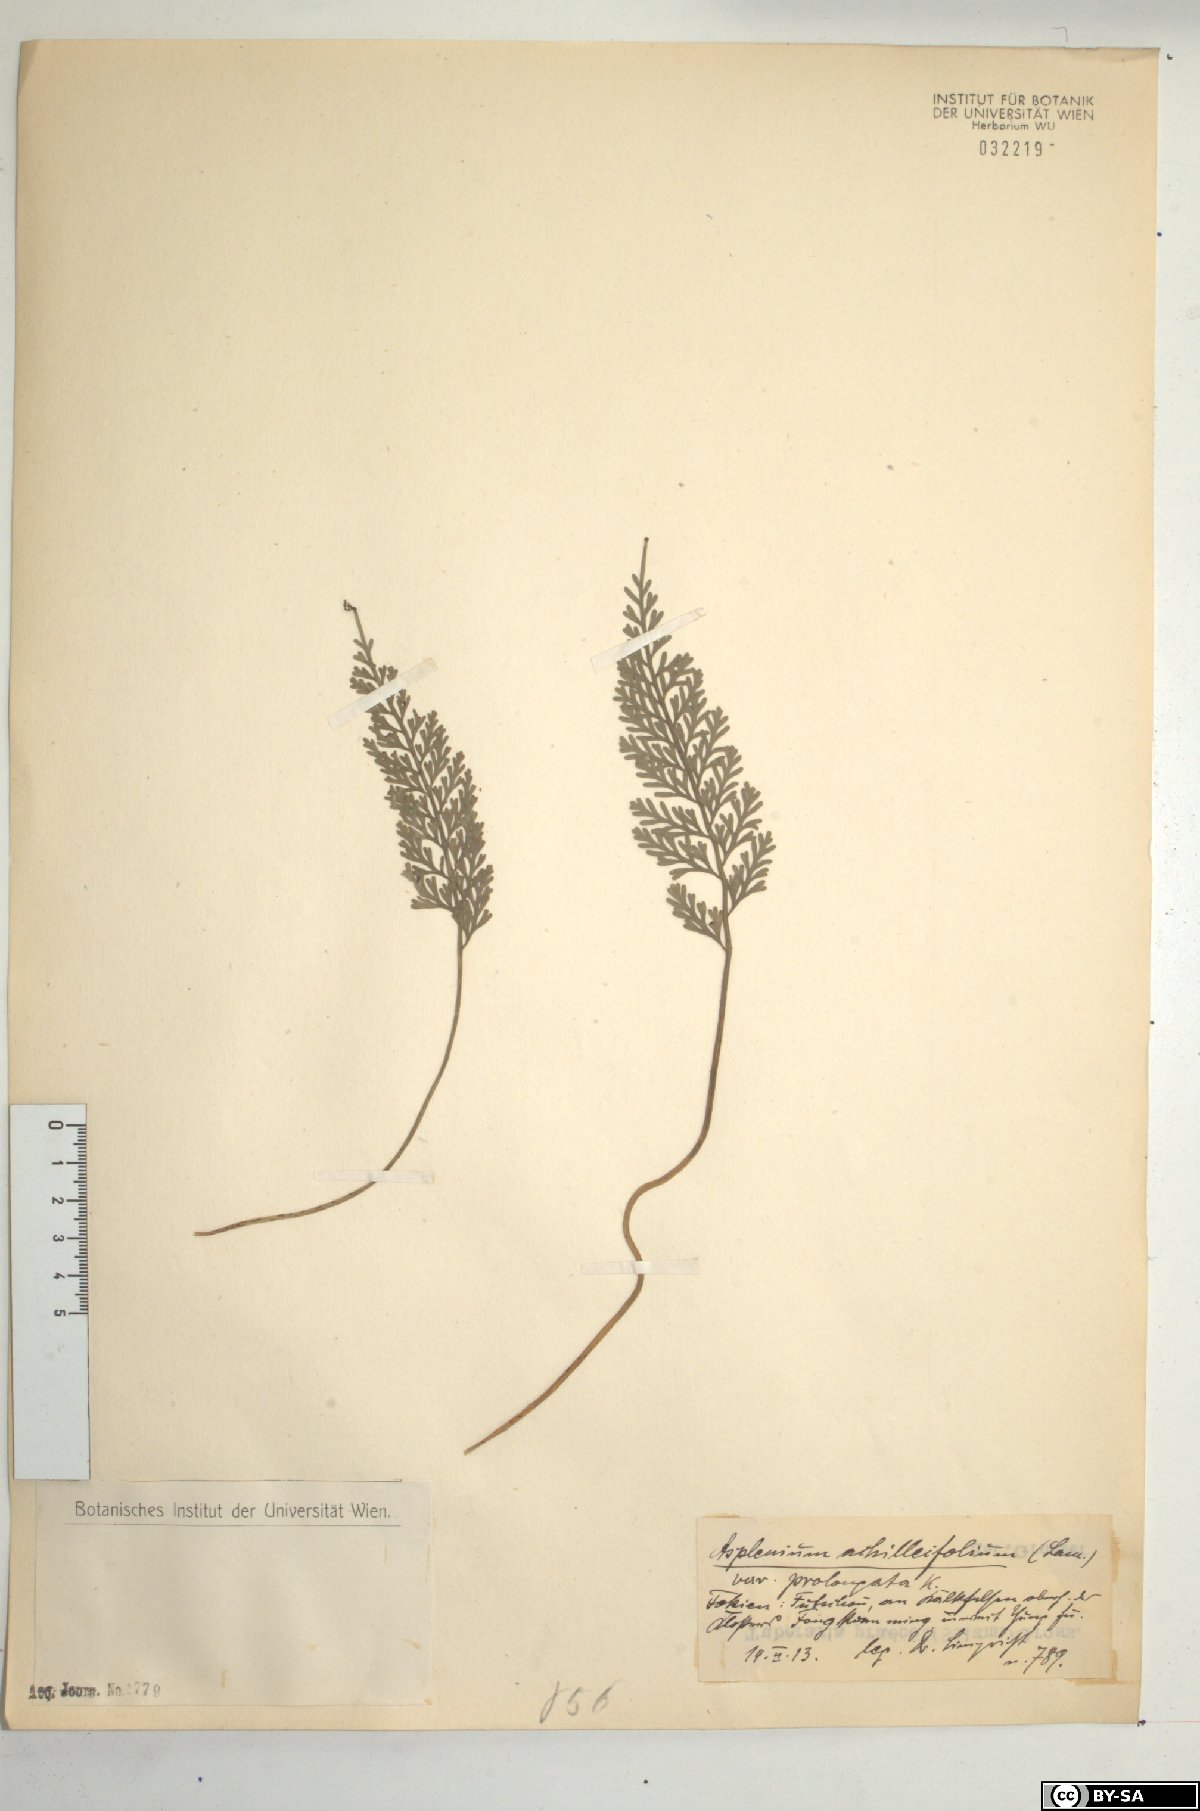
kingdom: Plantae
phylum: Tracheophyta
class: Polypodiopsida
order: Polypodiales
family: Aspleniaceae
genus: Asplenium
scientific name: Asplenium
